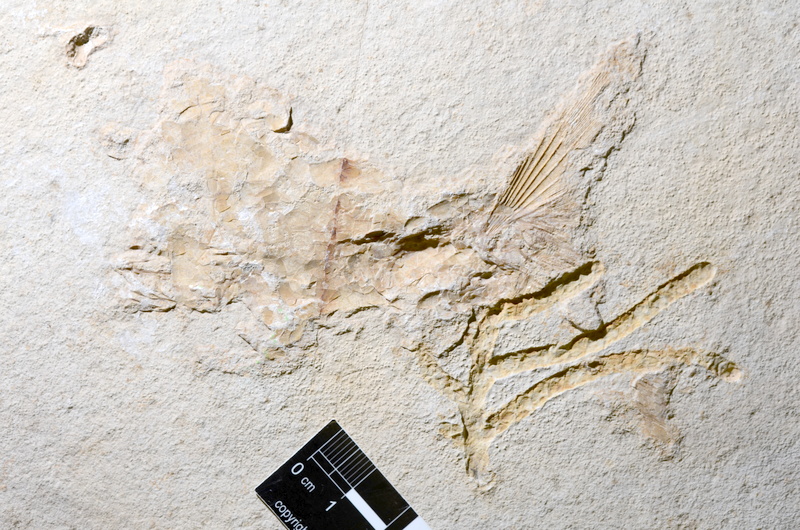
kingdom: Animalia
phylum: Chordata
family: Ankylophoridae
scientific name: Ankylophoridae
